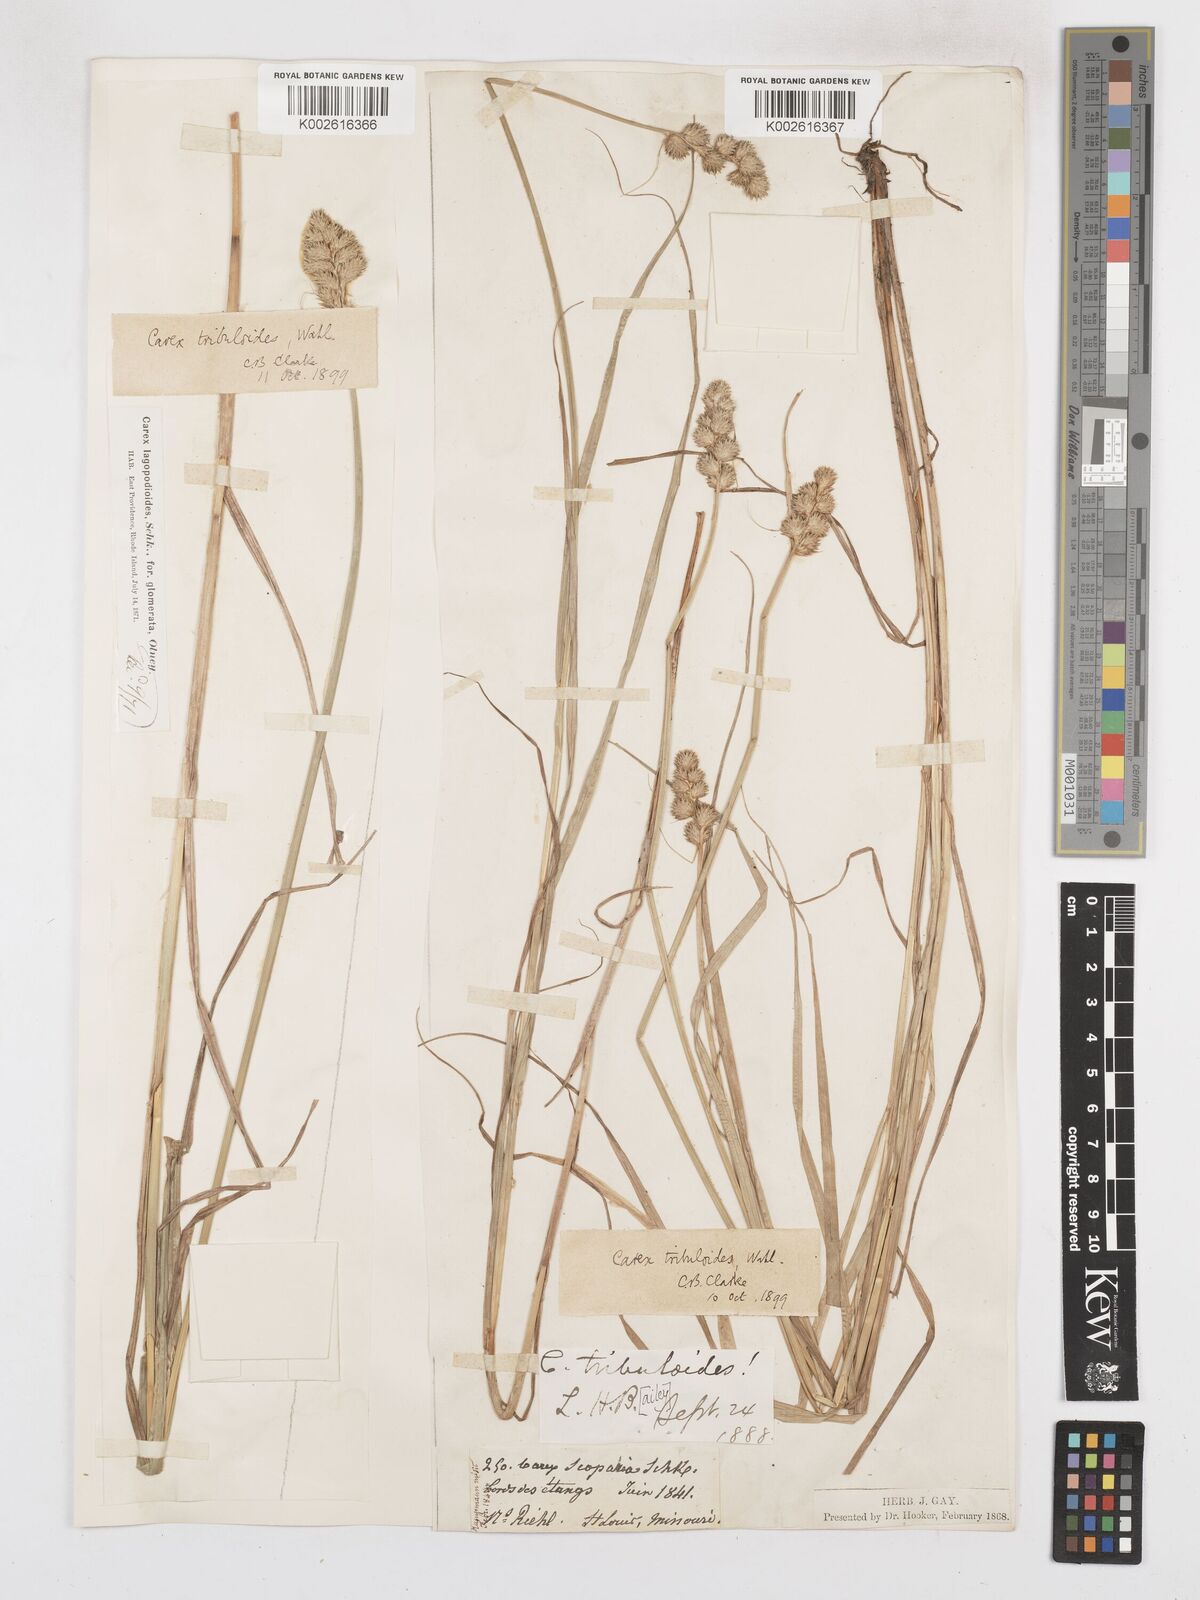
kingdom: Plantae
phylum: Tracheophyta
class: Liliopsida
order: Poales
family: Cyperaceae
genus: Carex
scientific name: Carex tribuloides
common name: Blunt broom sedge
